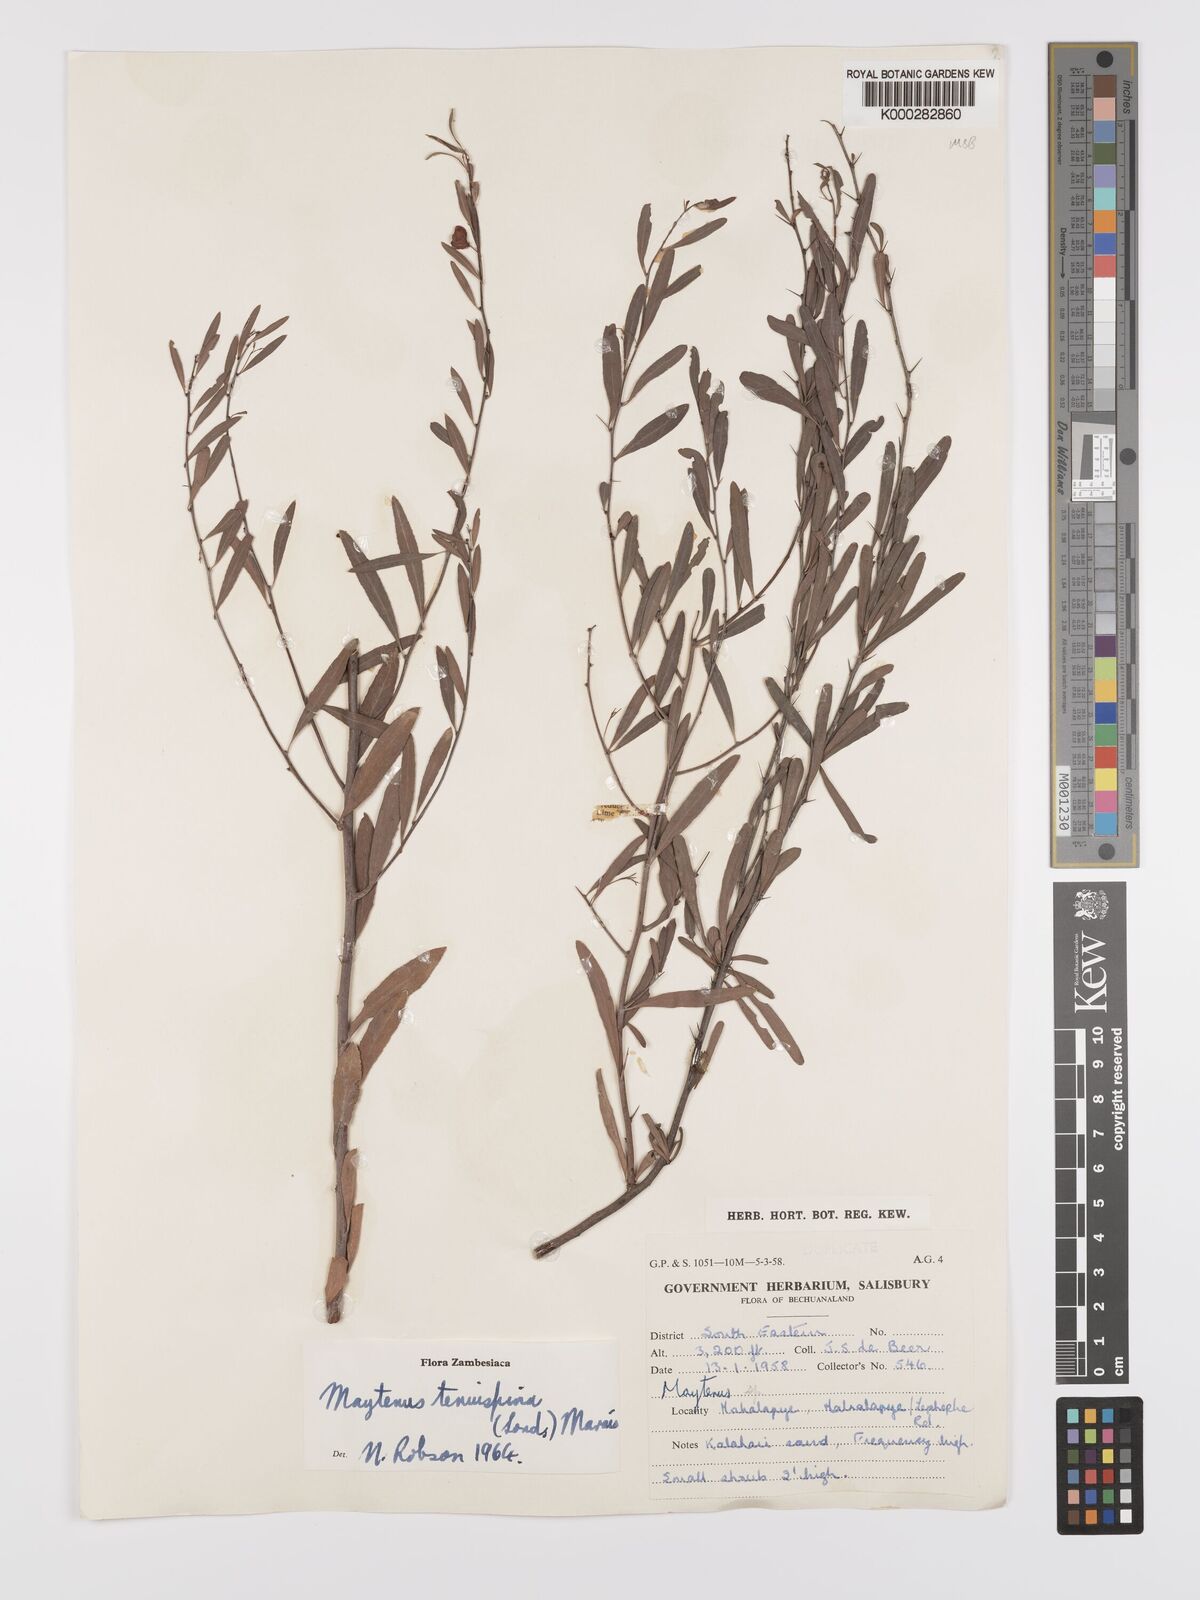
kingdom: Plantae
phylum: Tracheophyta
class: Magnoliopsida
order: Celastrales
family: Celastraceae
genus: Gymnosporia
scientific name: Gymnosporia tenuispina
